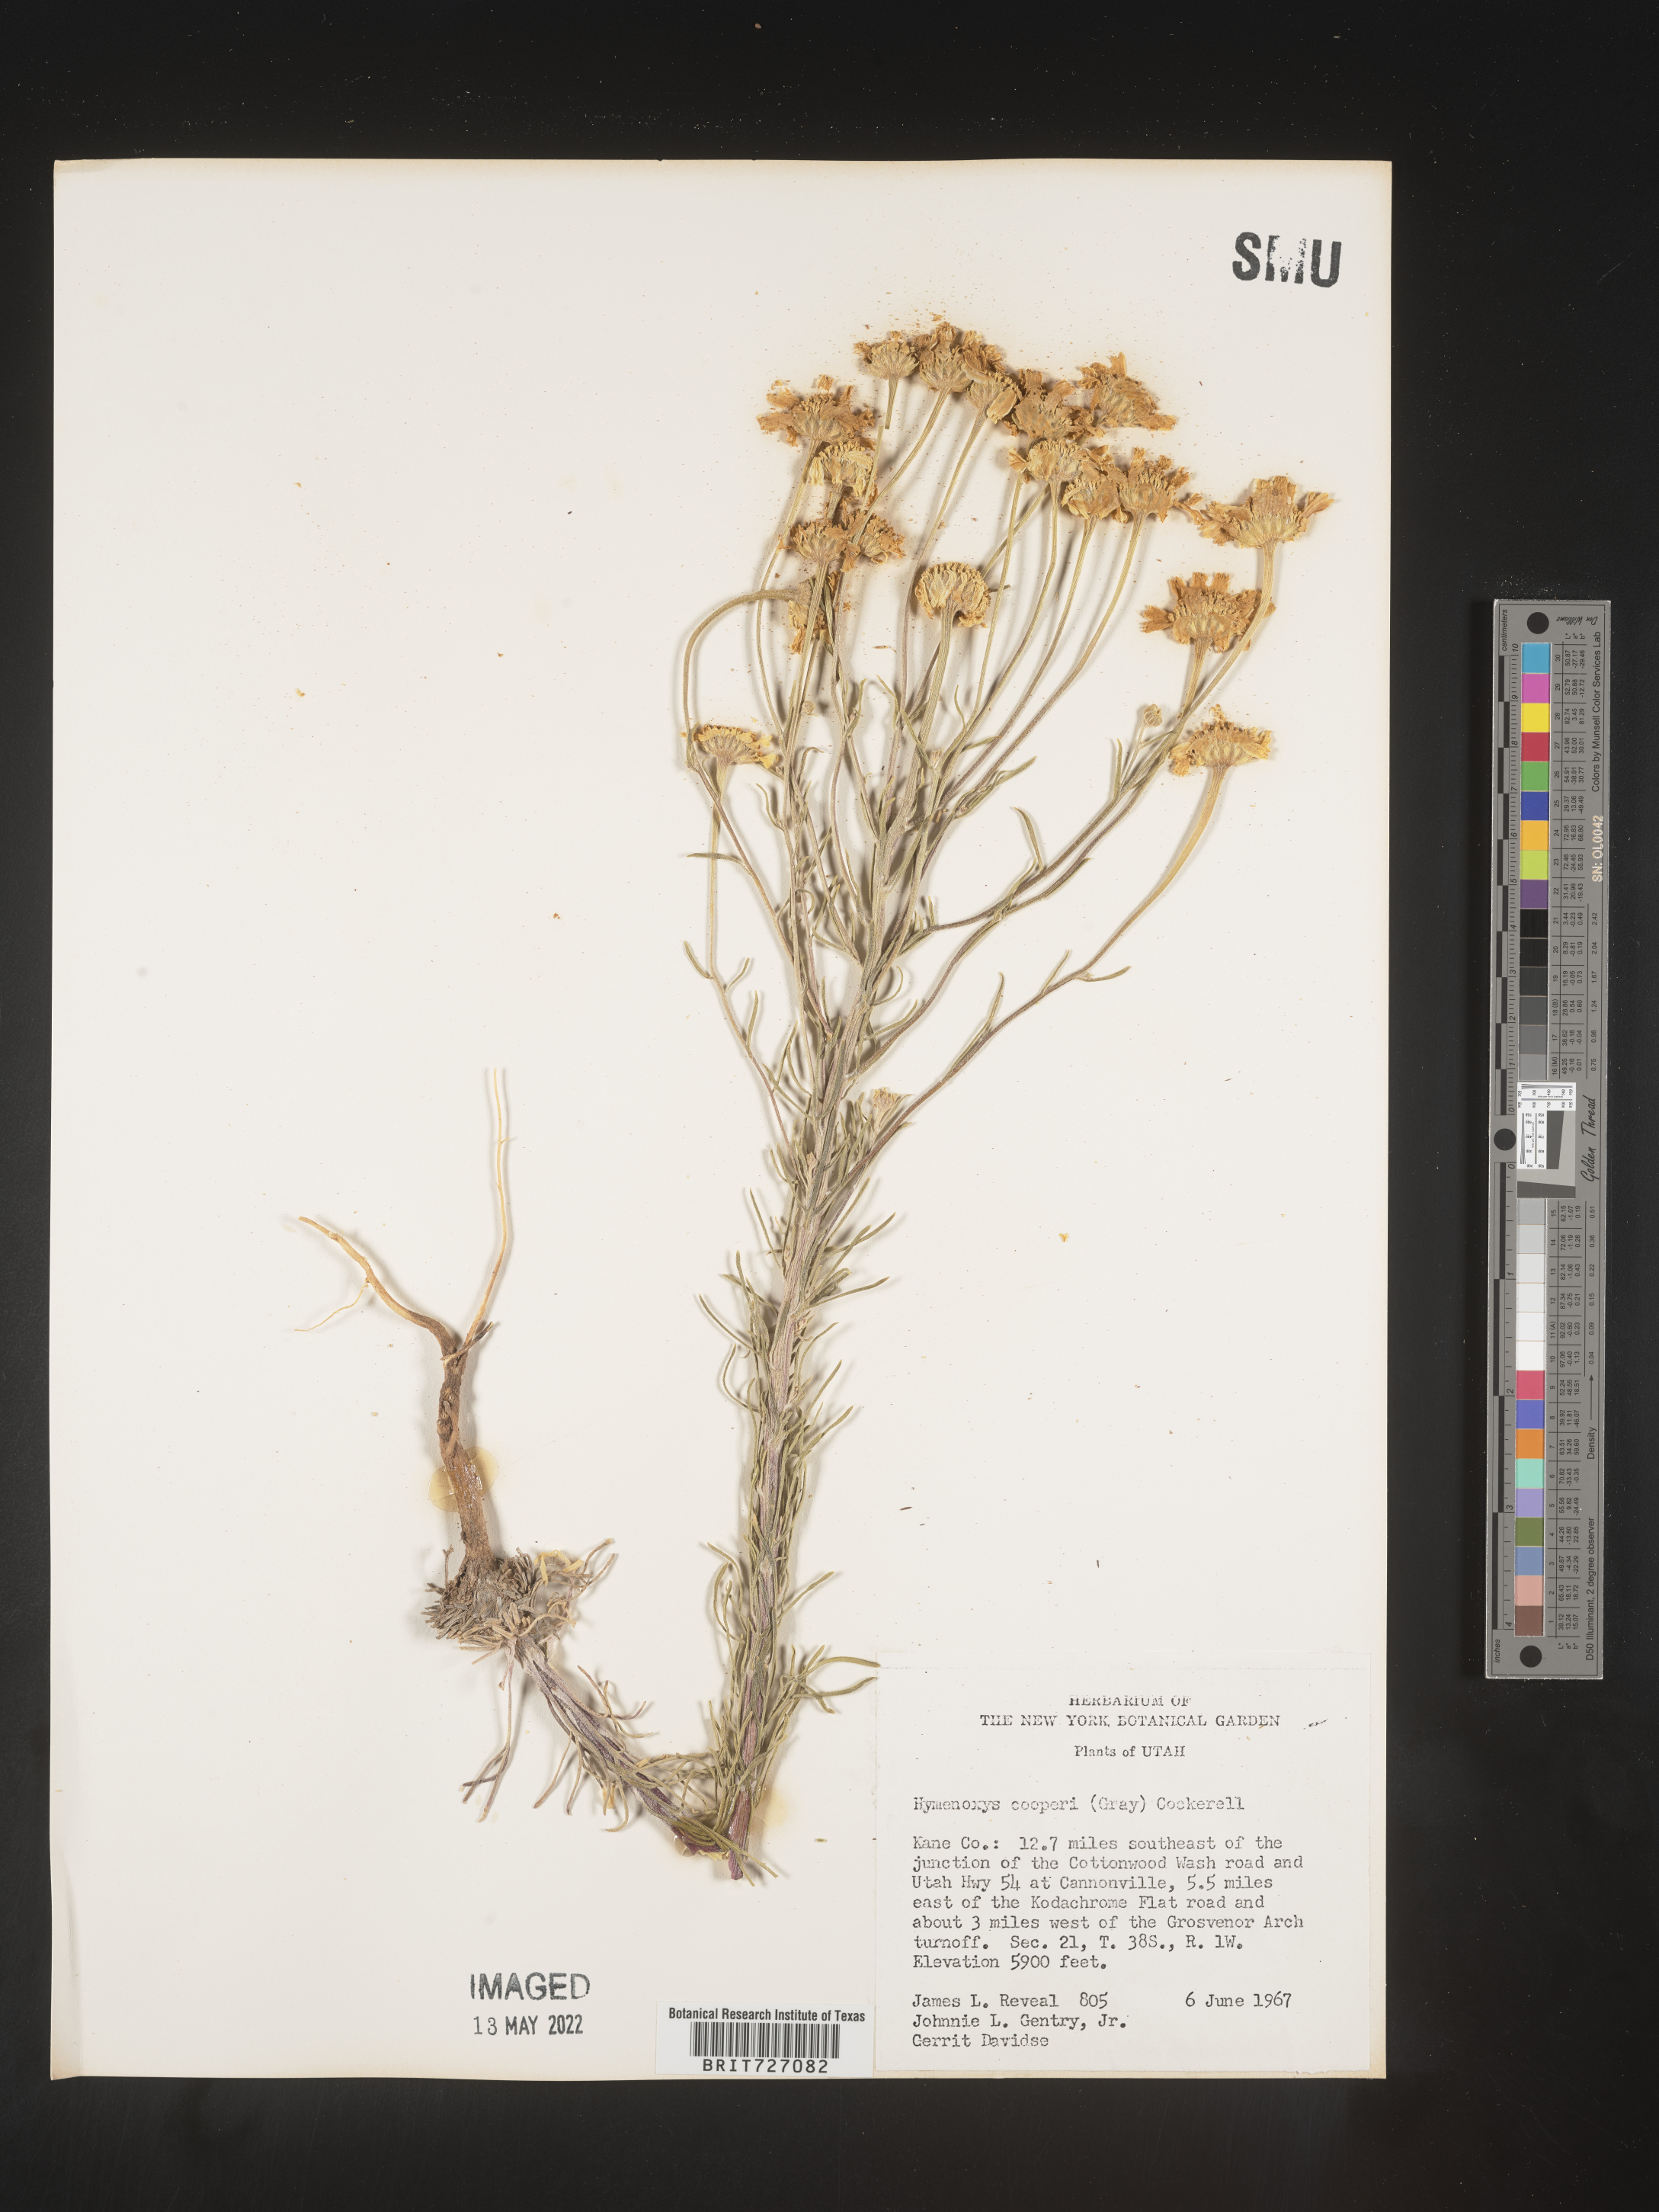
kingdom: Plantae
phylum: Tracheophyta
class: Magnoliopsida
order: Asterales
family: Asteraceae
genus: Hymenoxys
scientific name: Hymenoxys cooperi
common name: Cooper's bitterweed
